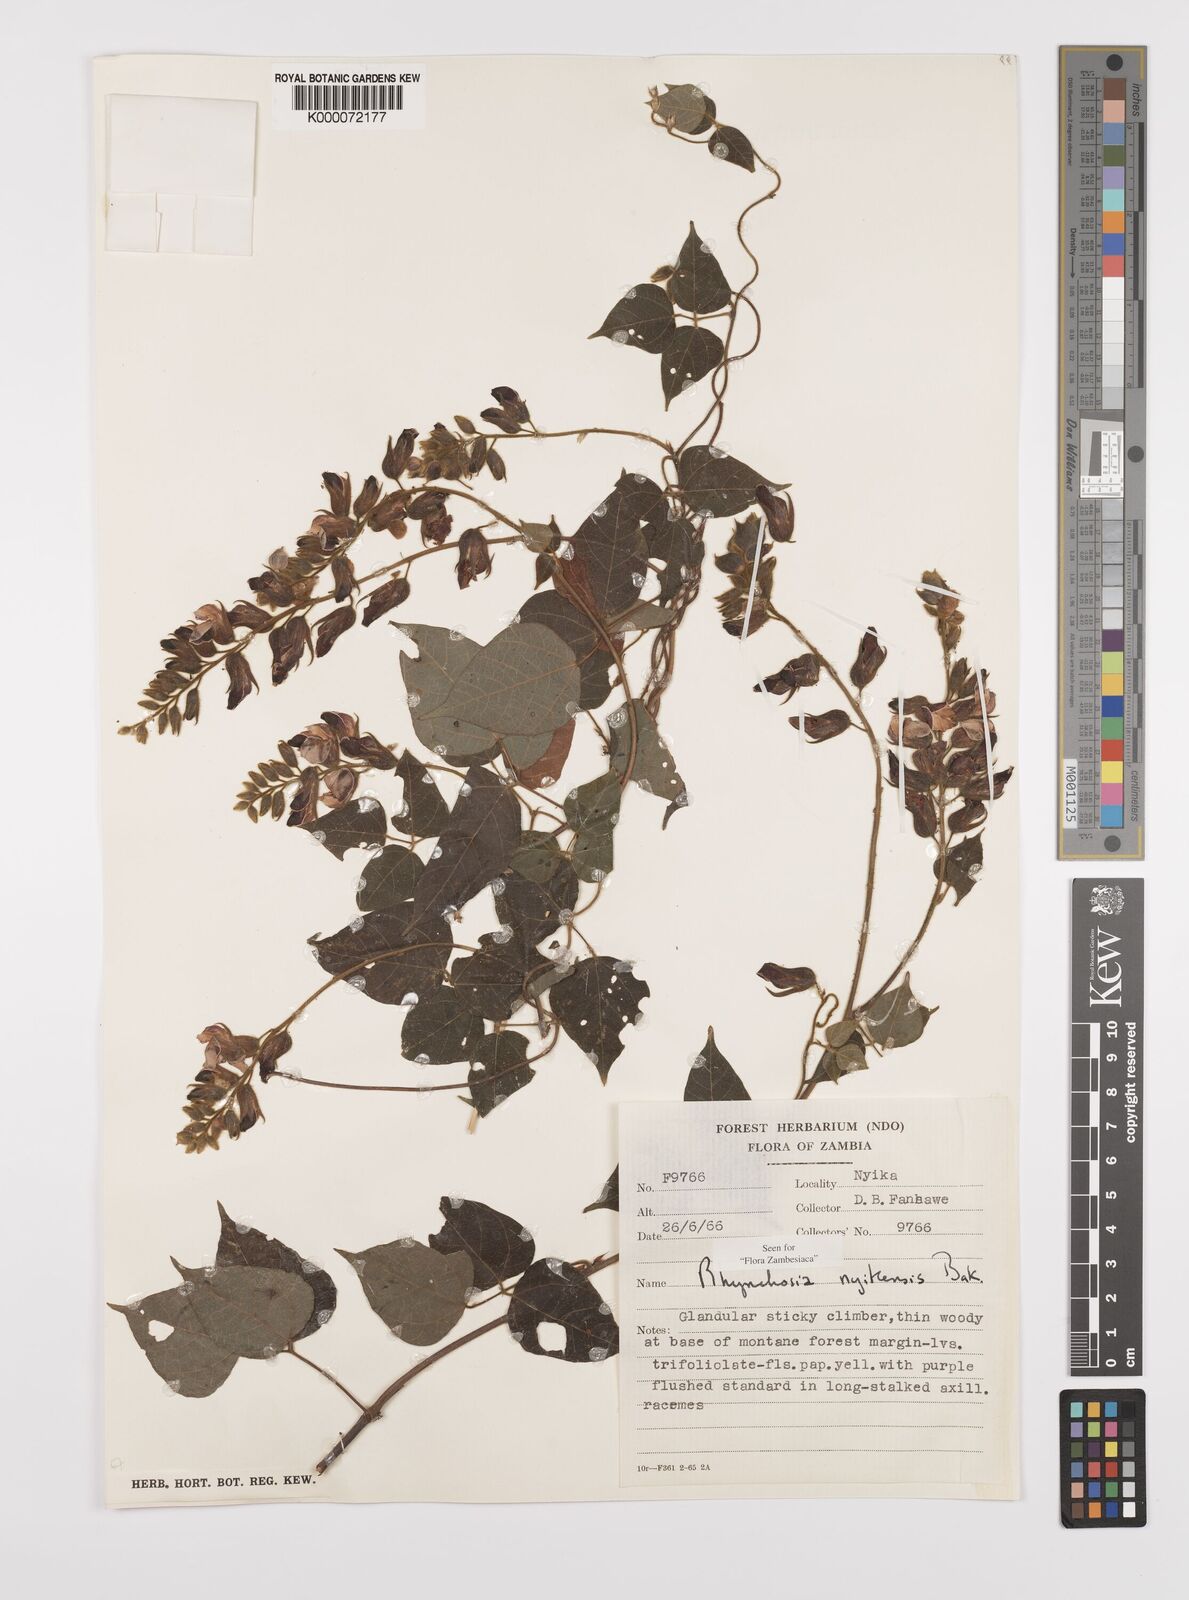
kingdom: Plantae
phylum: Tracheophyta
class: Magnoliopsida
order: Fabales
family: Fabaceae
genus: Rhynchosia
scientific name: Rhynchosia nyikensis
